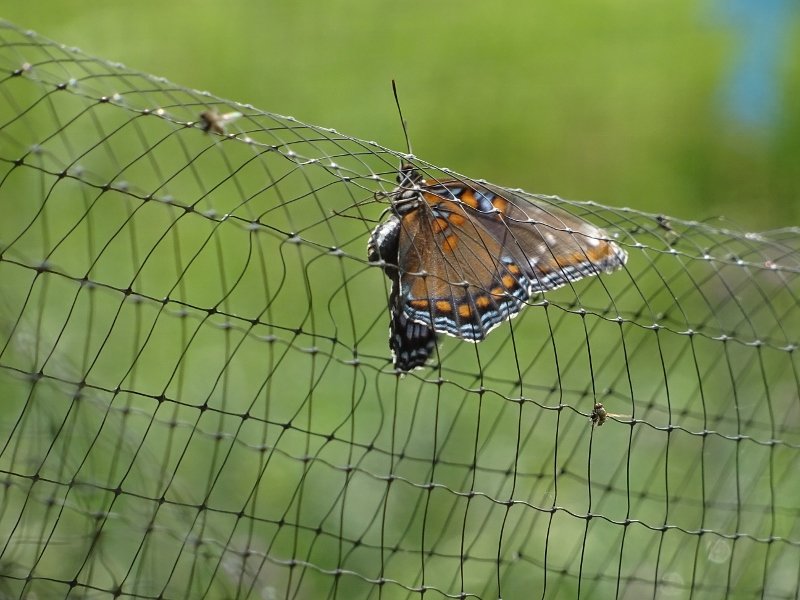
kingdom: Animalia
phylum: Arthropoda
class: Insecta
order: Lepidoptera
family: Nymphalidae
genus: Limenitis
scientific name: Limenitis
